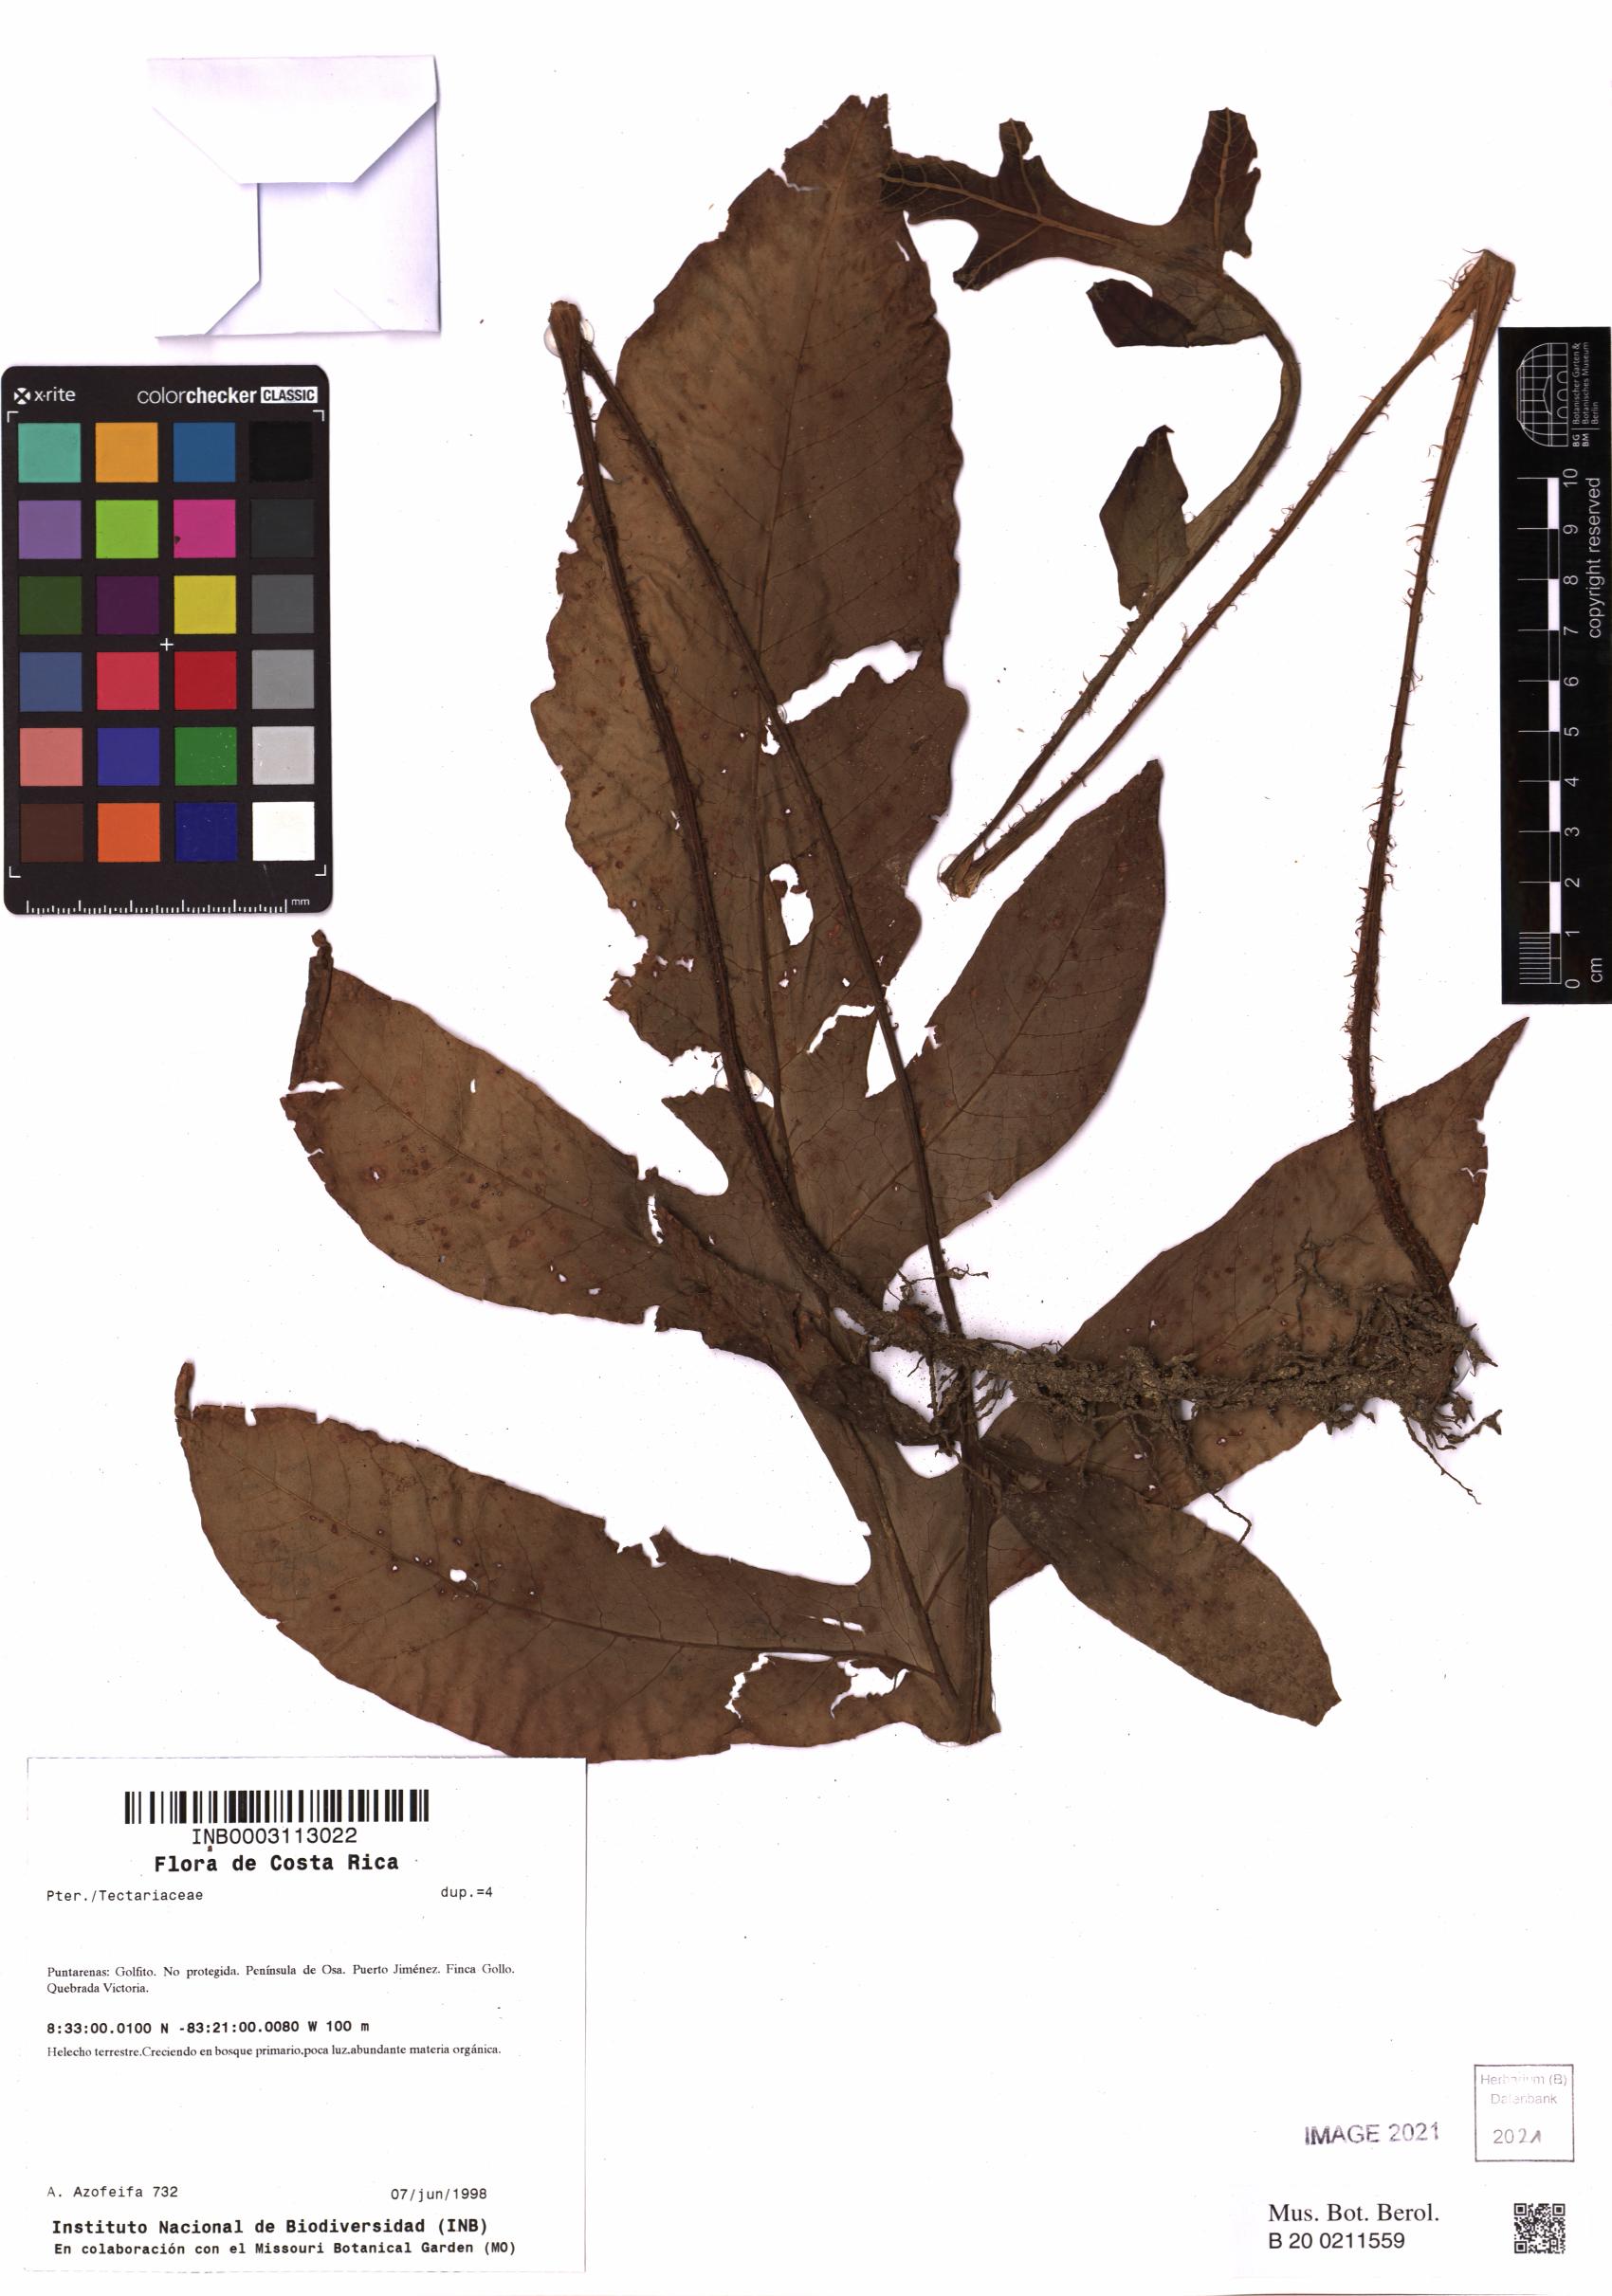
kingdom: Plantae
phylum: Tracheophyta
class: Polypodiopsida
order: Polypodiales
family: Tectariaceae
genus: Hypoderris
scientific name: Hypoderris nicotianifolia
